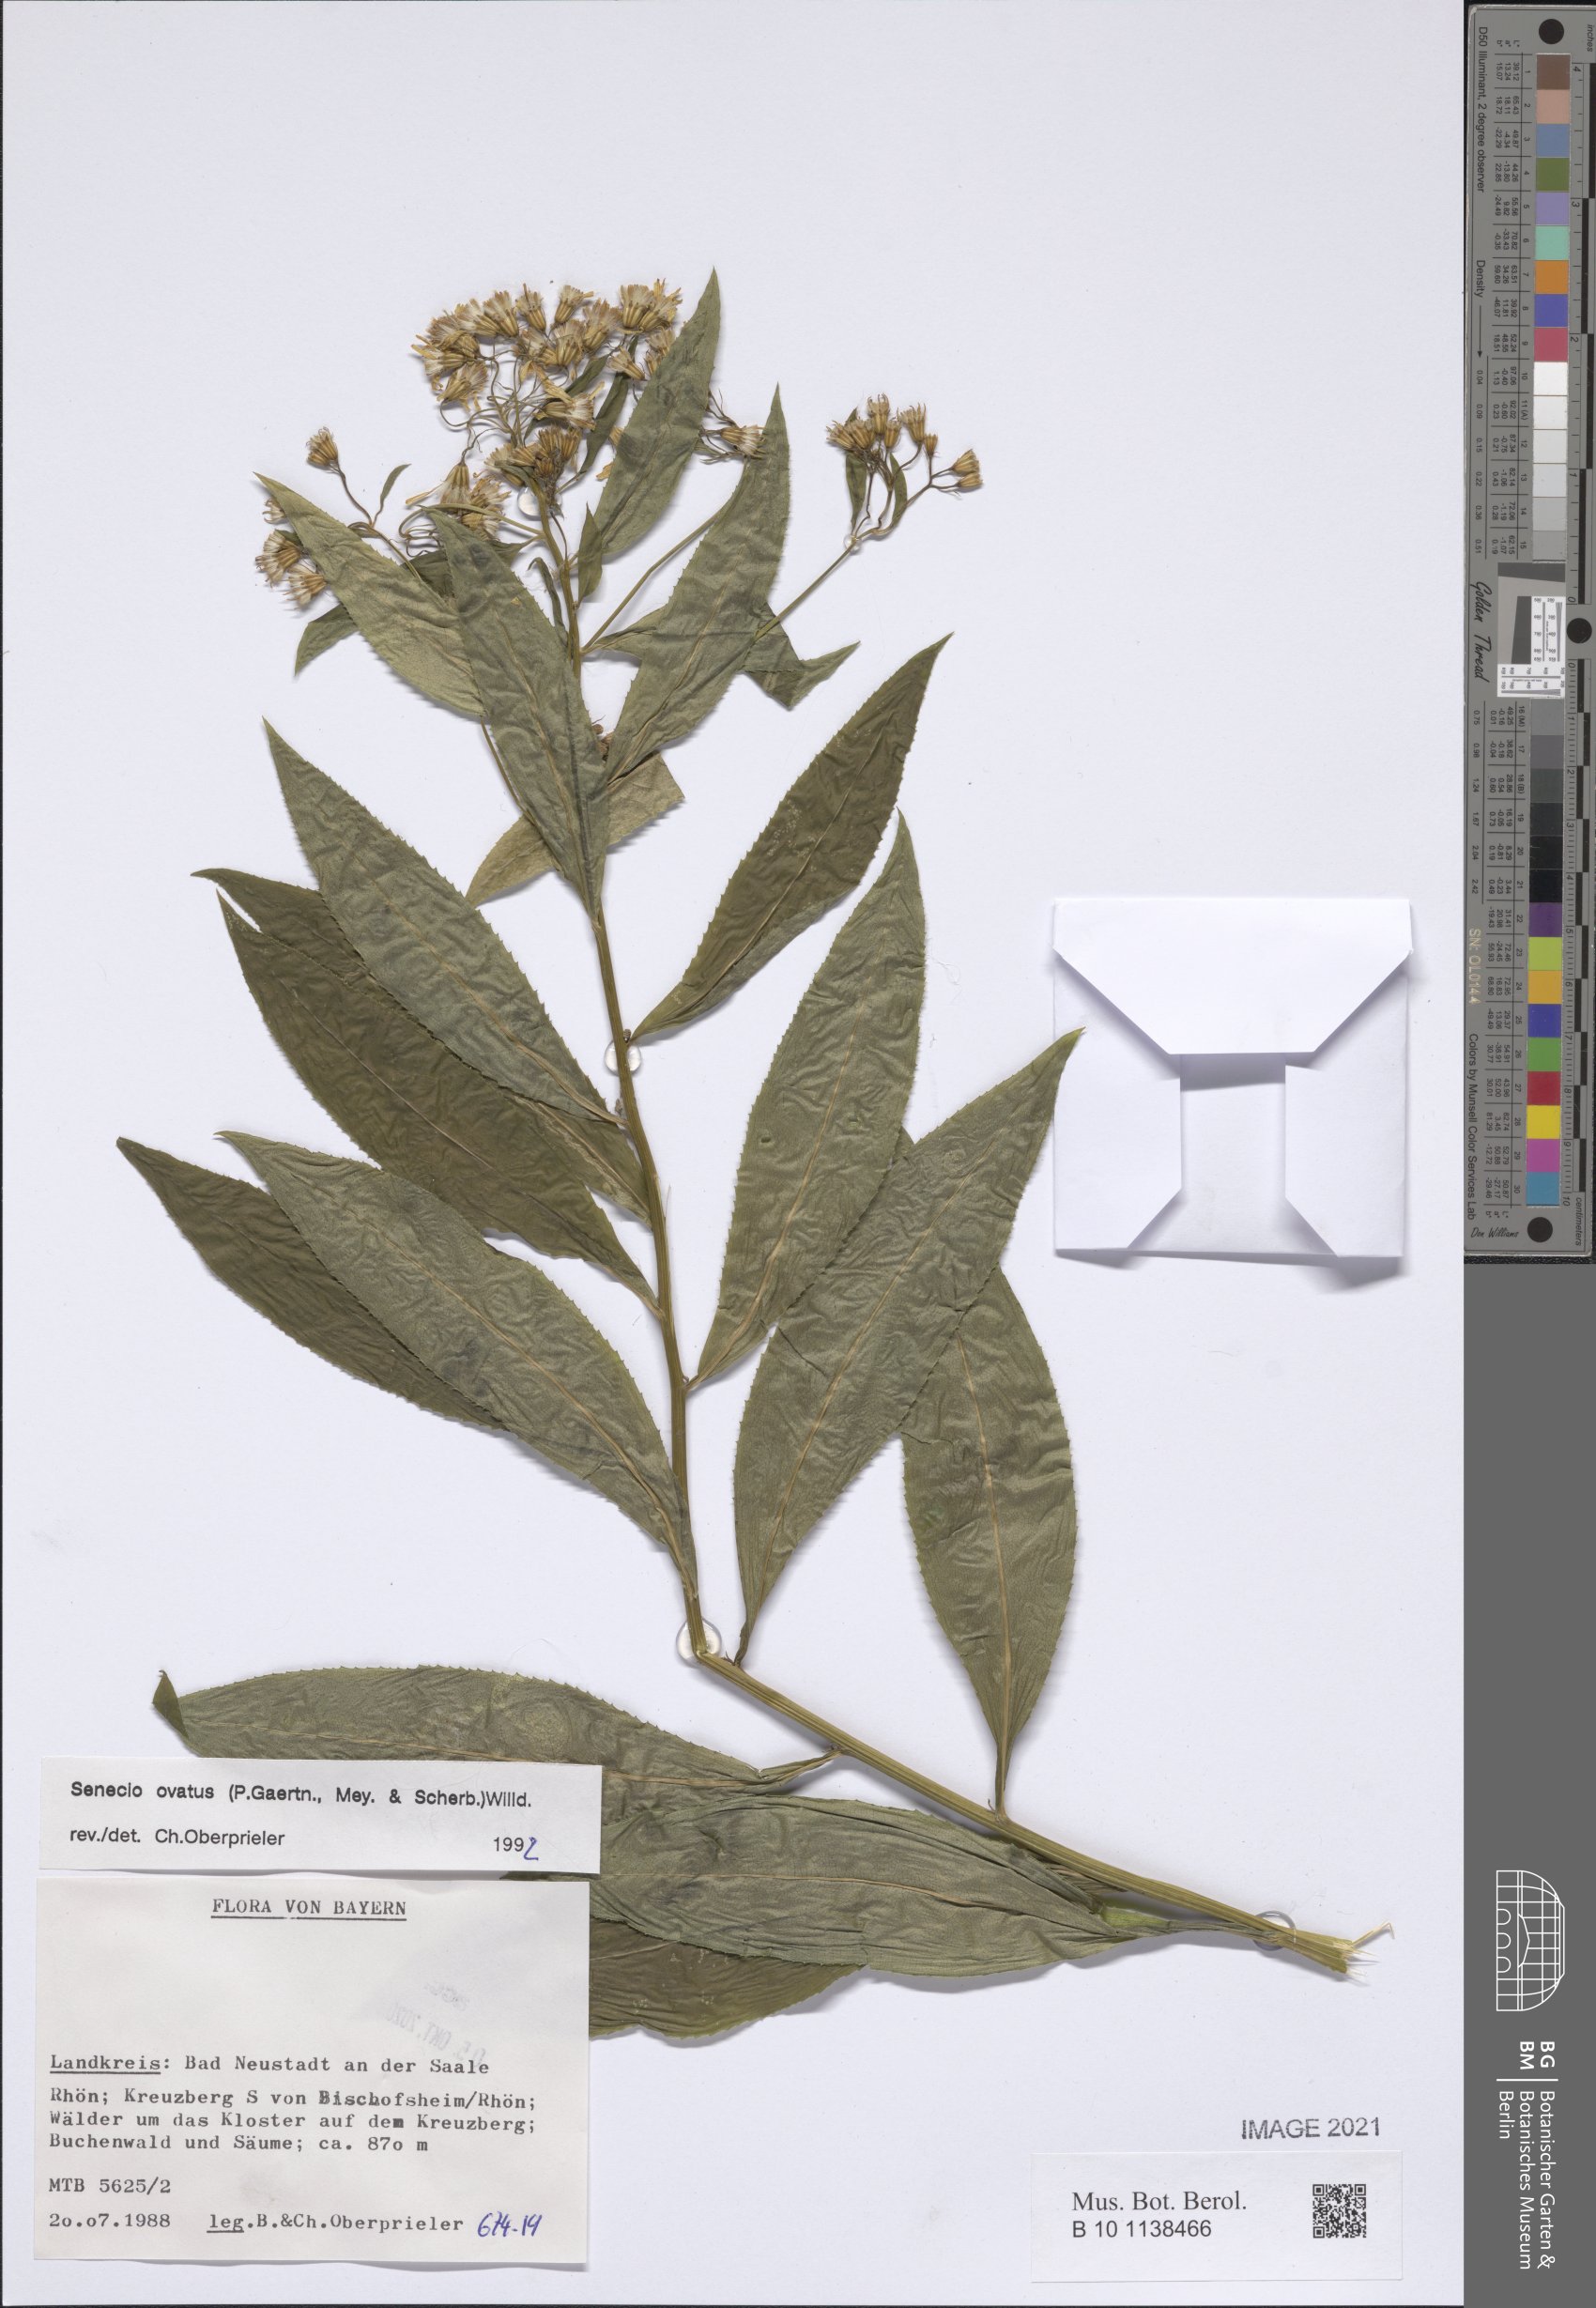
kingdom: Plantae
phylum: Tracheophyta
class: Magnoliopsida
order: Asterales
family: Asteraceae
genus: Senecio
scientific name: Senecio ovatus
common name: Wood ragwort
